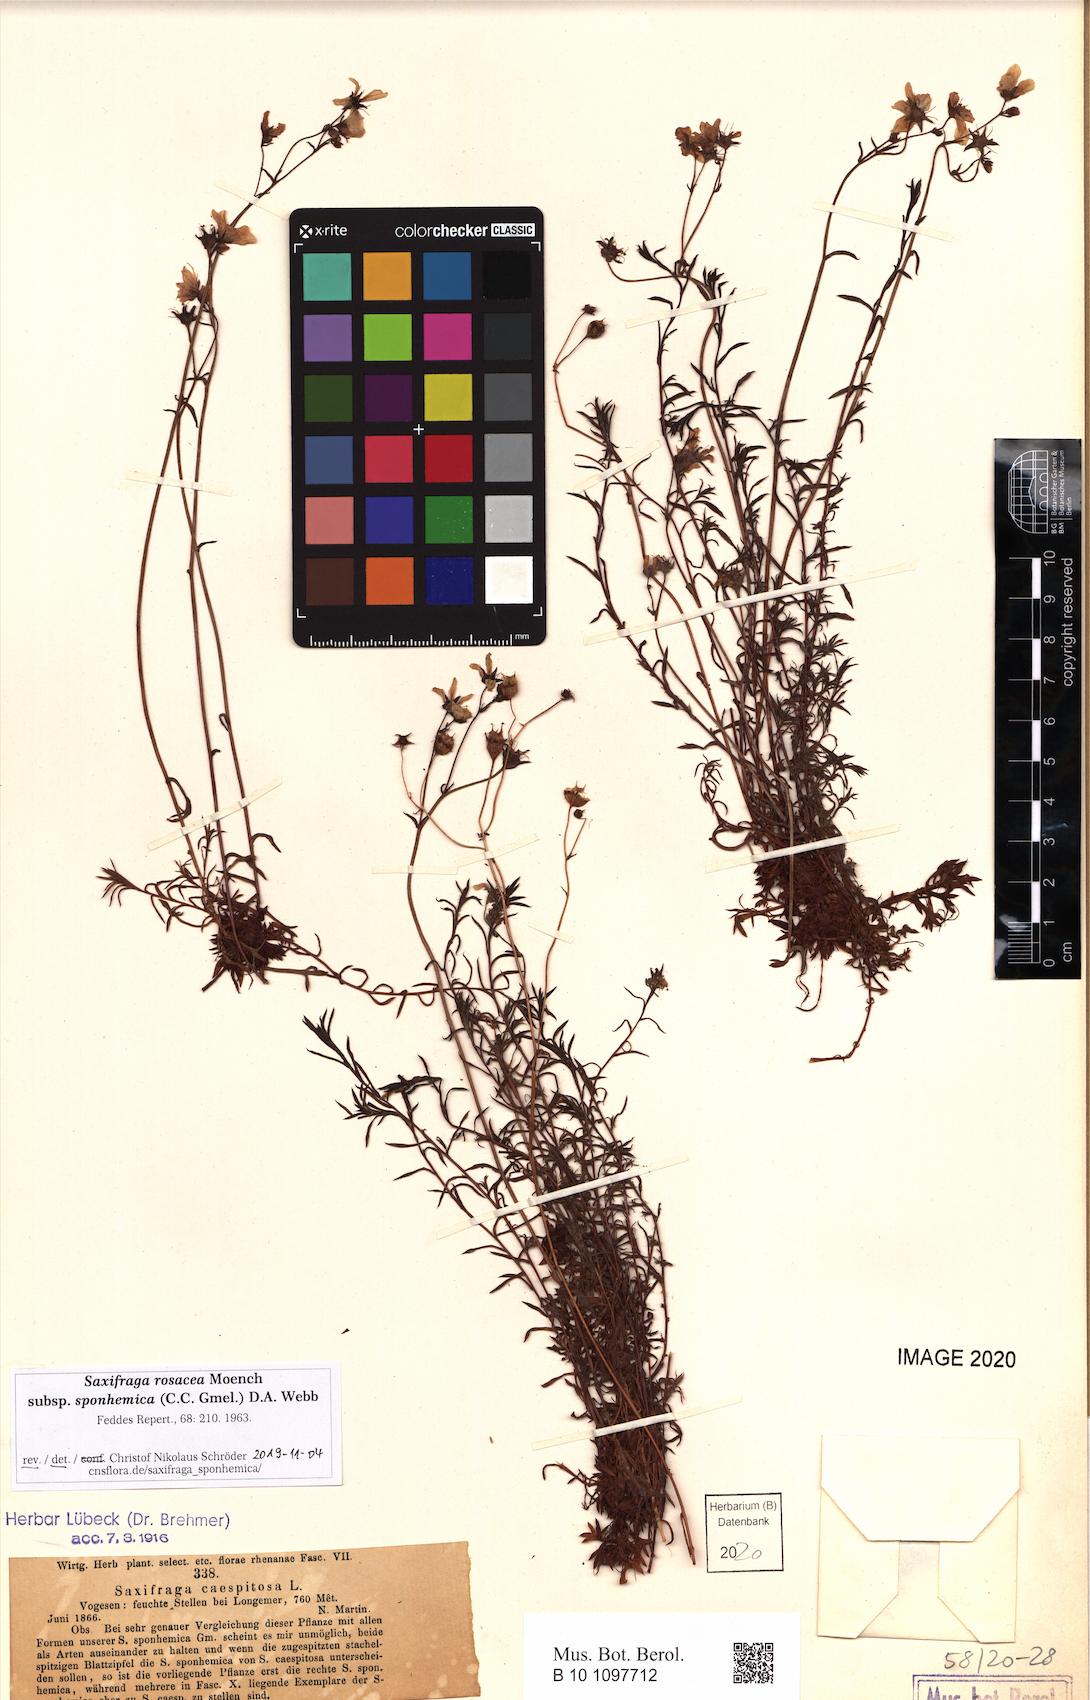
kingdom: Plantae
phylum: Tracheophyta
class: Magnoliopsida
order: Saxifragales
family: Saxifragaceae
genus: Saxifraga
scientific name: Saxifraga rosacea
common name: Irish saxifrage
